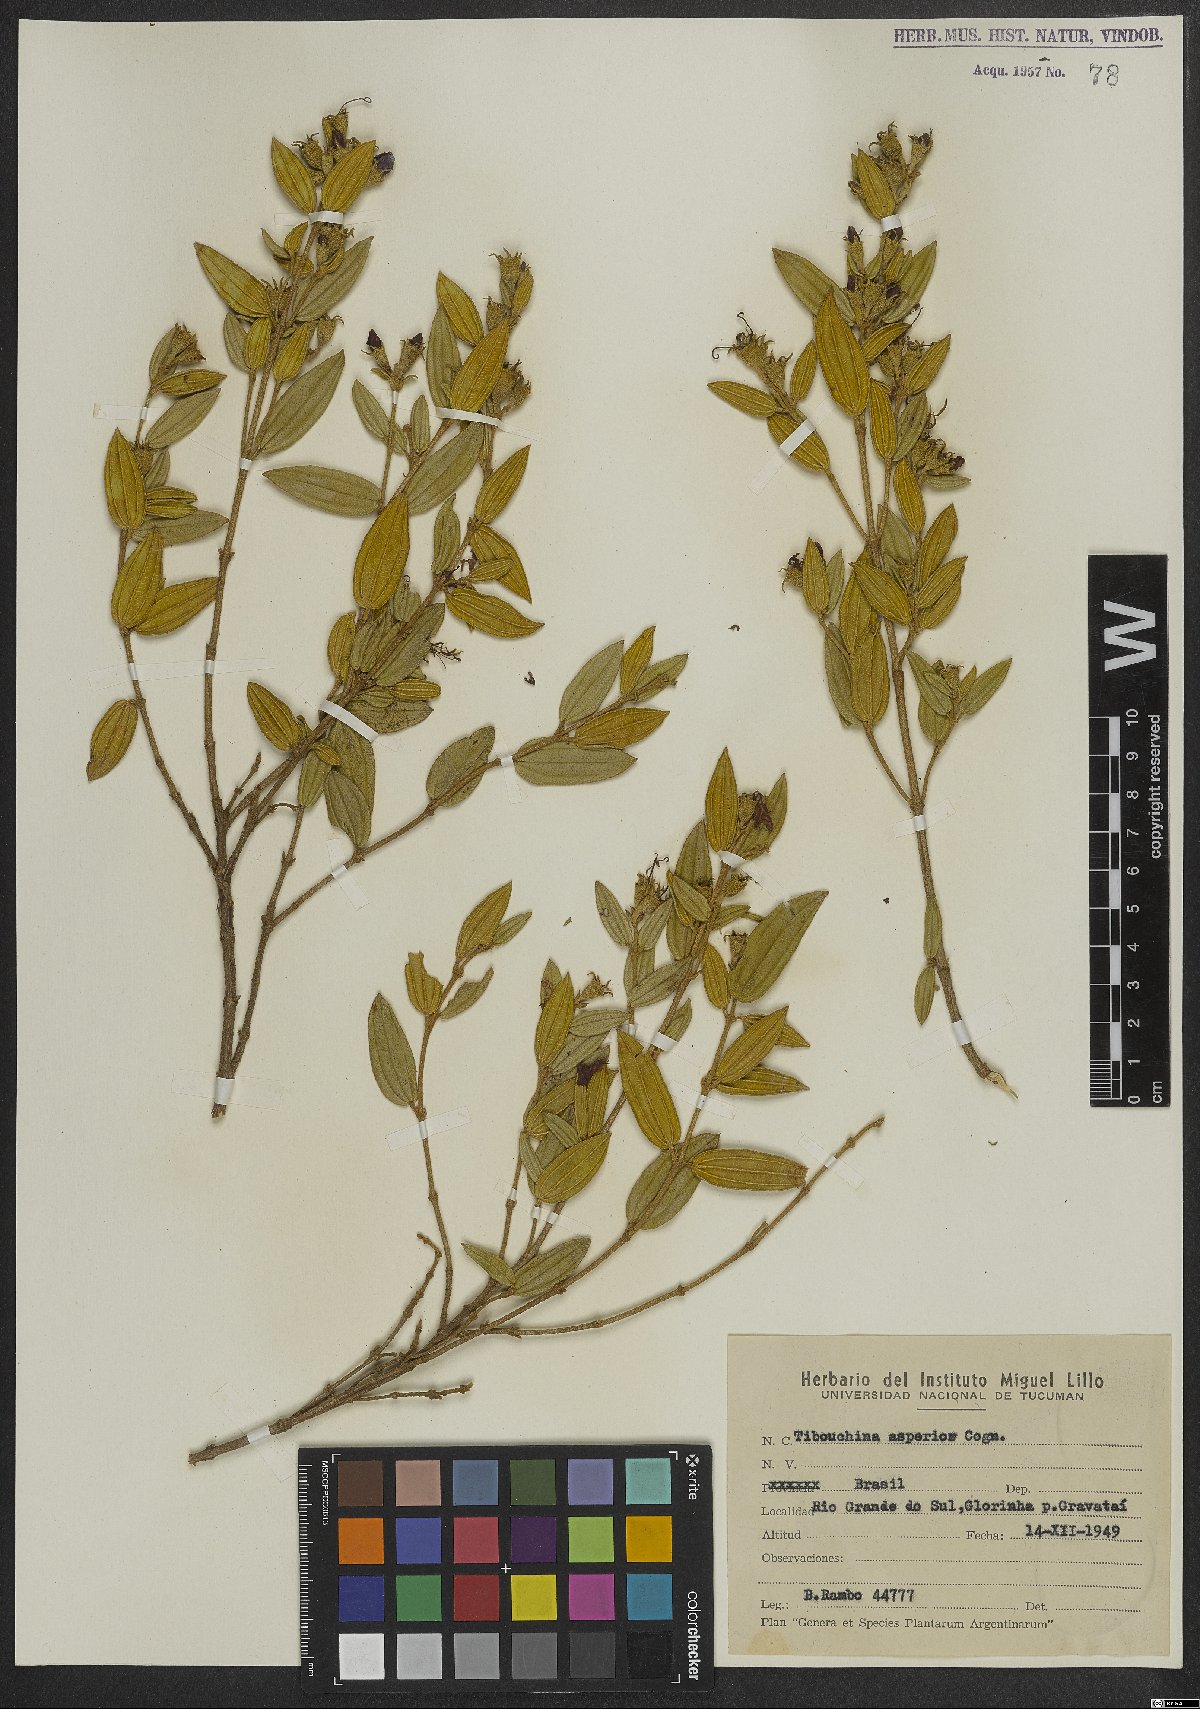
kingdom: Plantae
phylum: Tracheophyta
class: Magnoliopsida
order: Myrtales
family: Melastomataceae
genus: Pleroma
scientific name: Pleroma asperius
